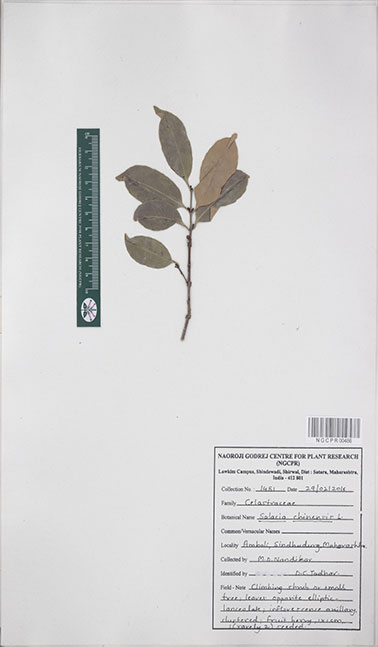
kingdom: Plantae
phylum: Tracheophyta
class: Magnoliopsida
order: Celastrales
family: Celastraceae
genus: Salacia
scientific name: Salacia chinensis
